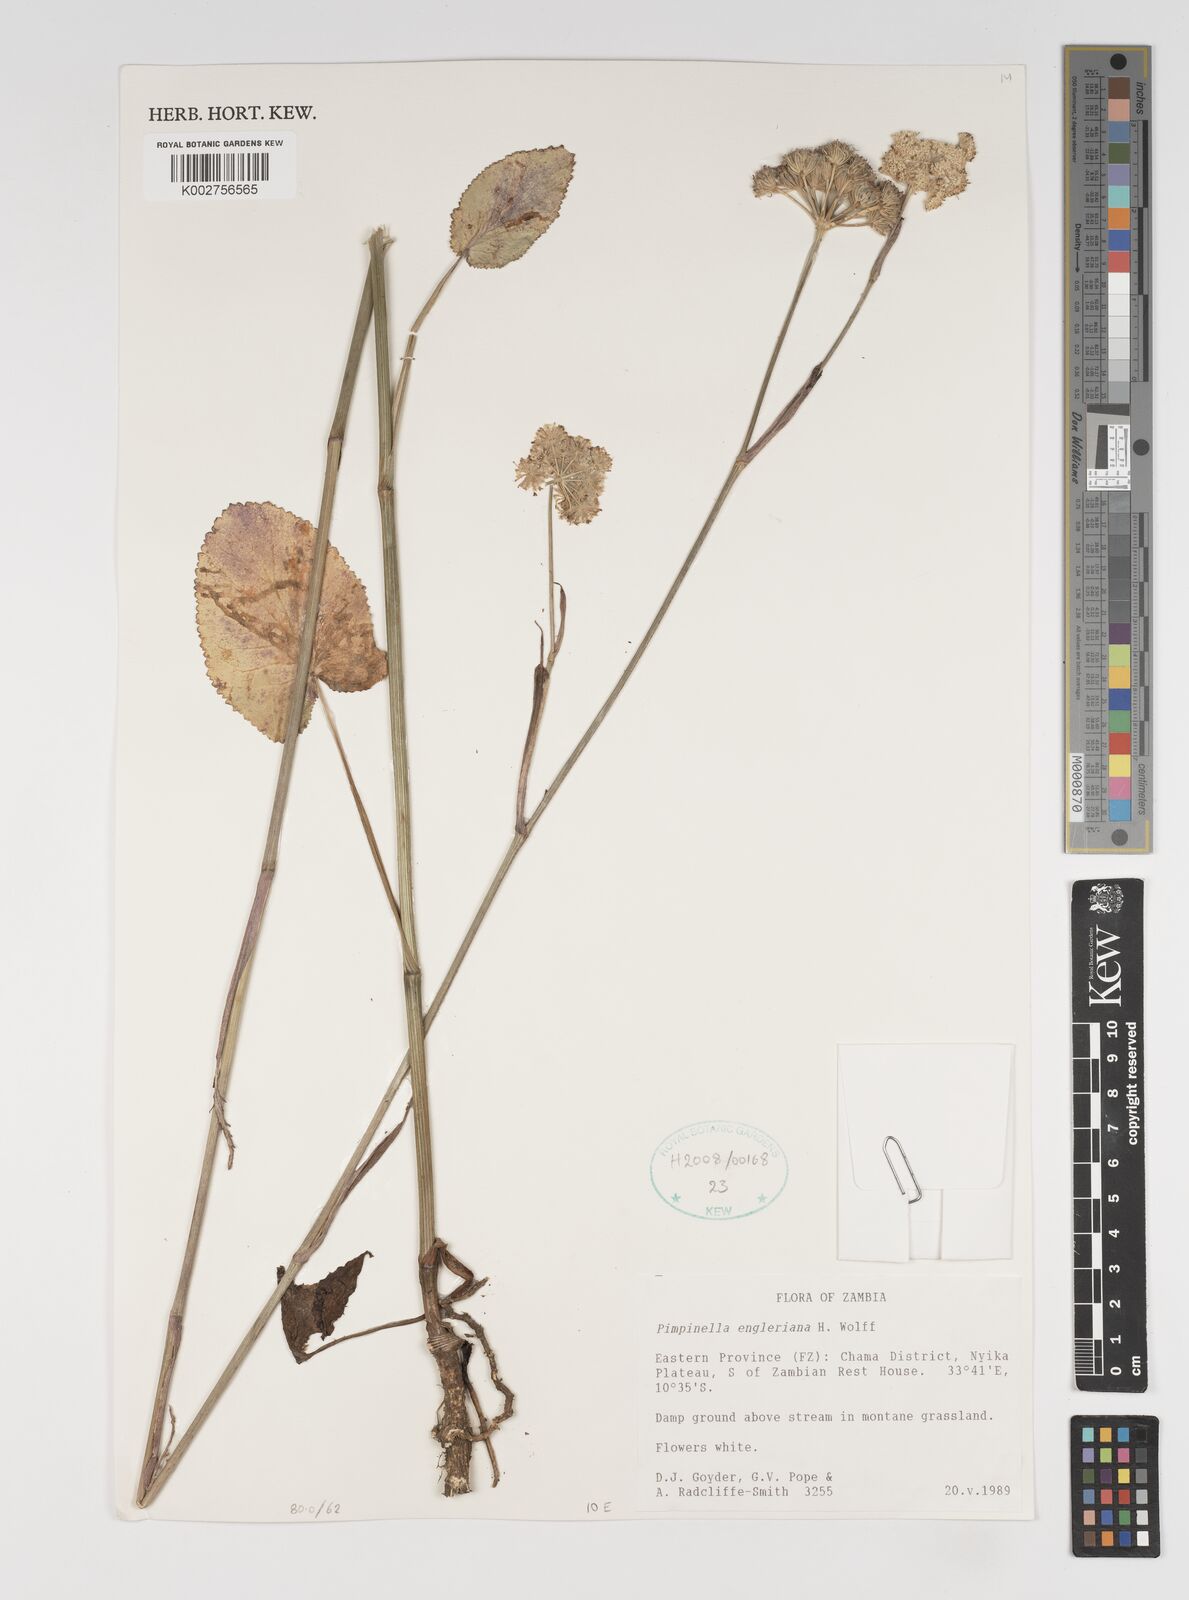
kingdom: Plantae
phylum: Tracheophyta
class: Magnoliopsida
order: Apiales
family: Apiaceae
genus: Pimpinella
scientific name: Pimpinella kingdon-wardii
